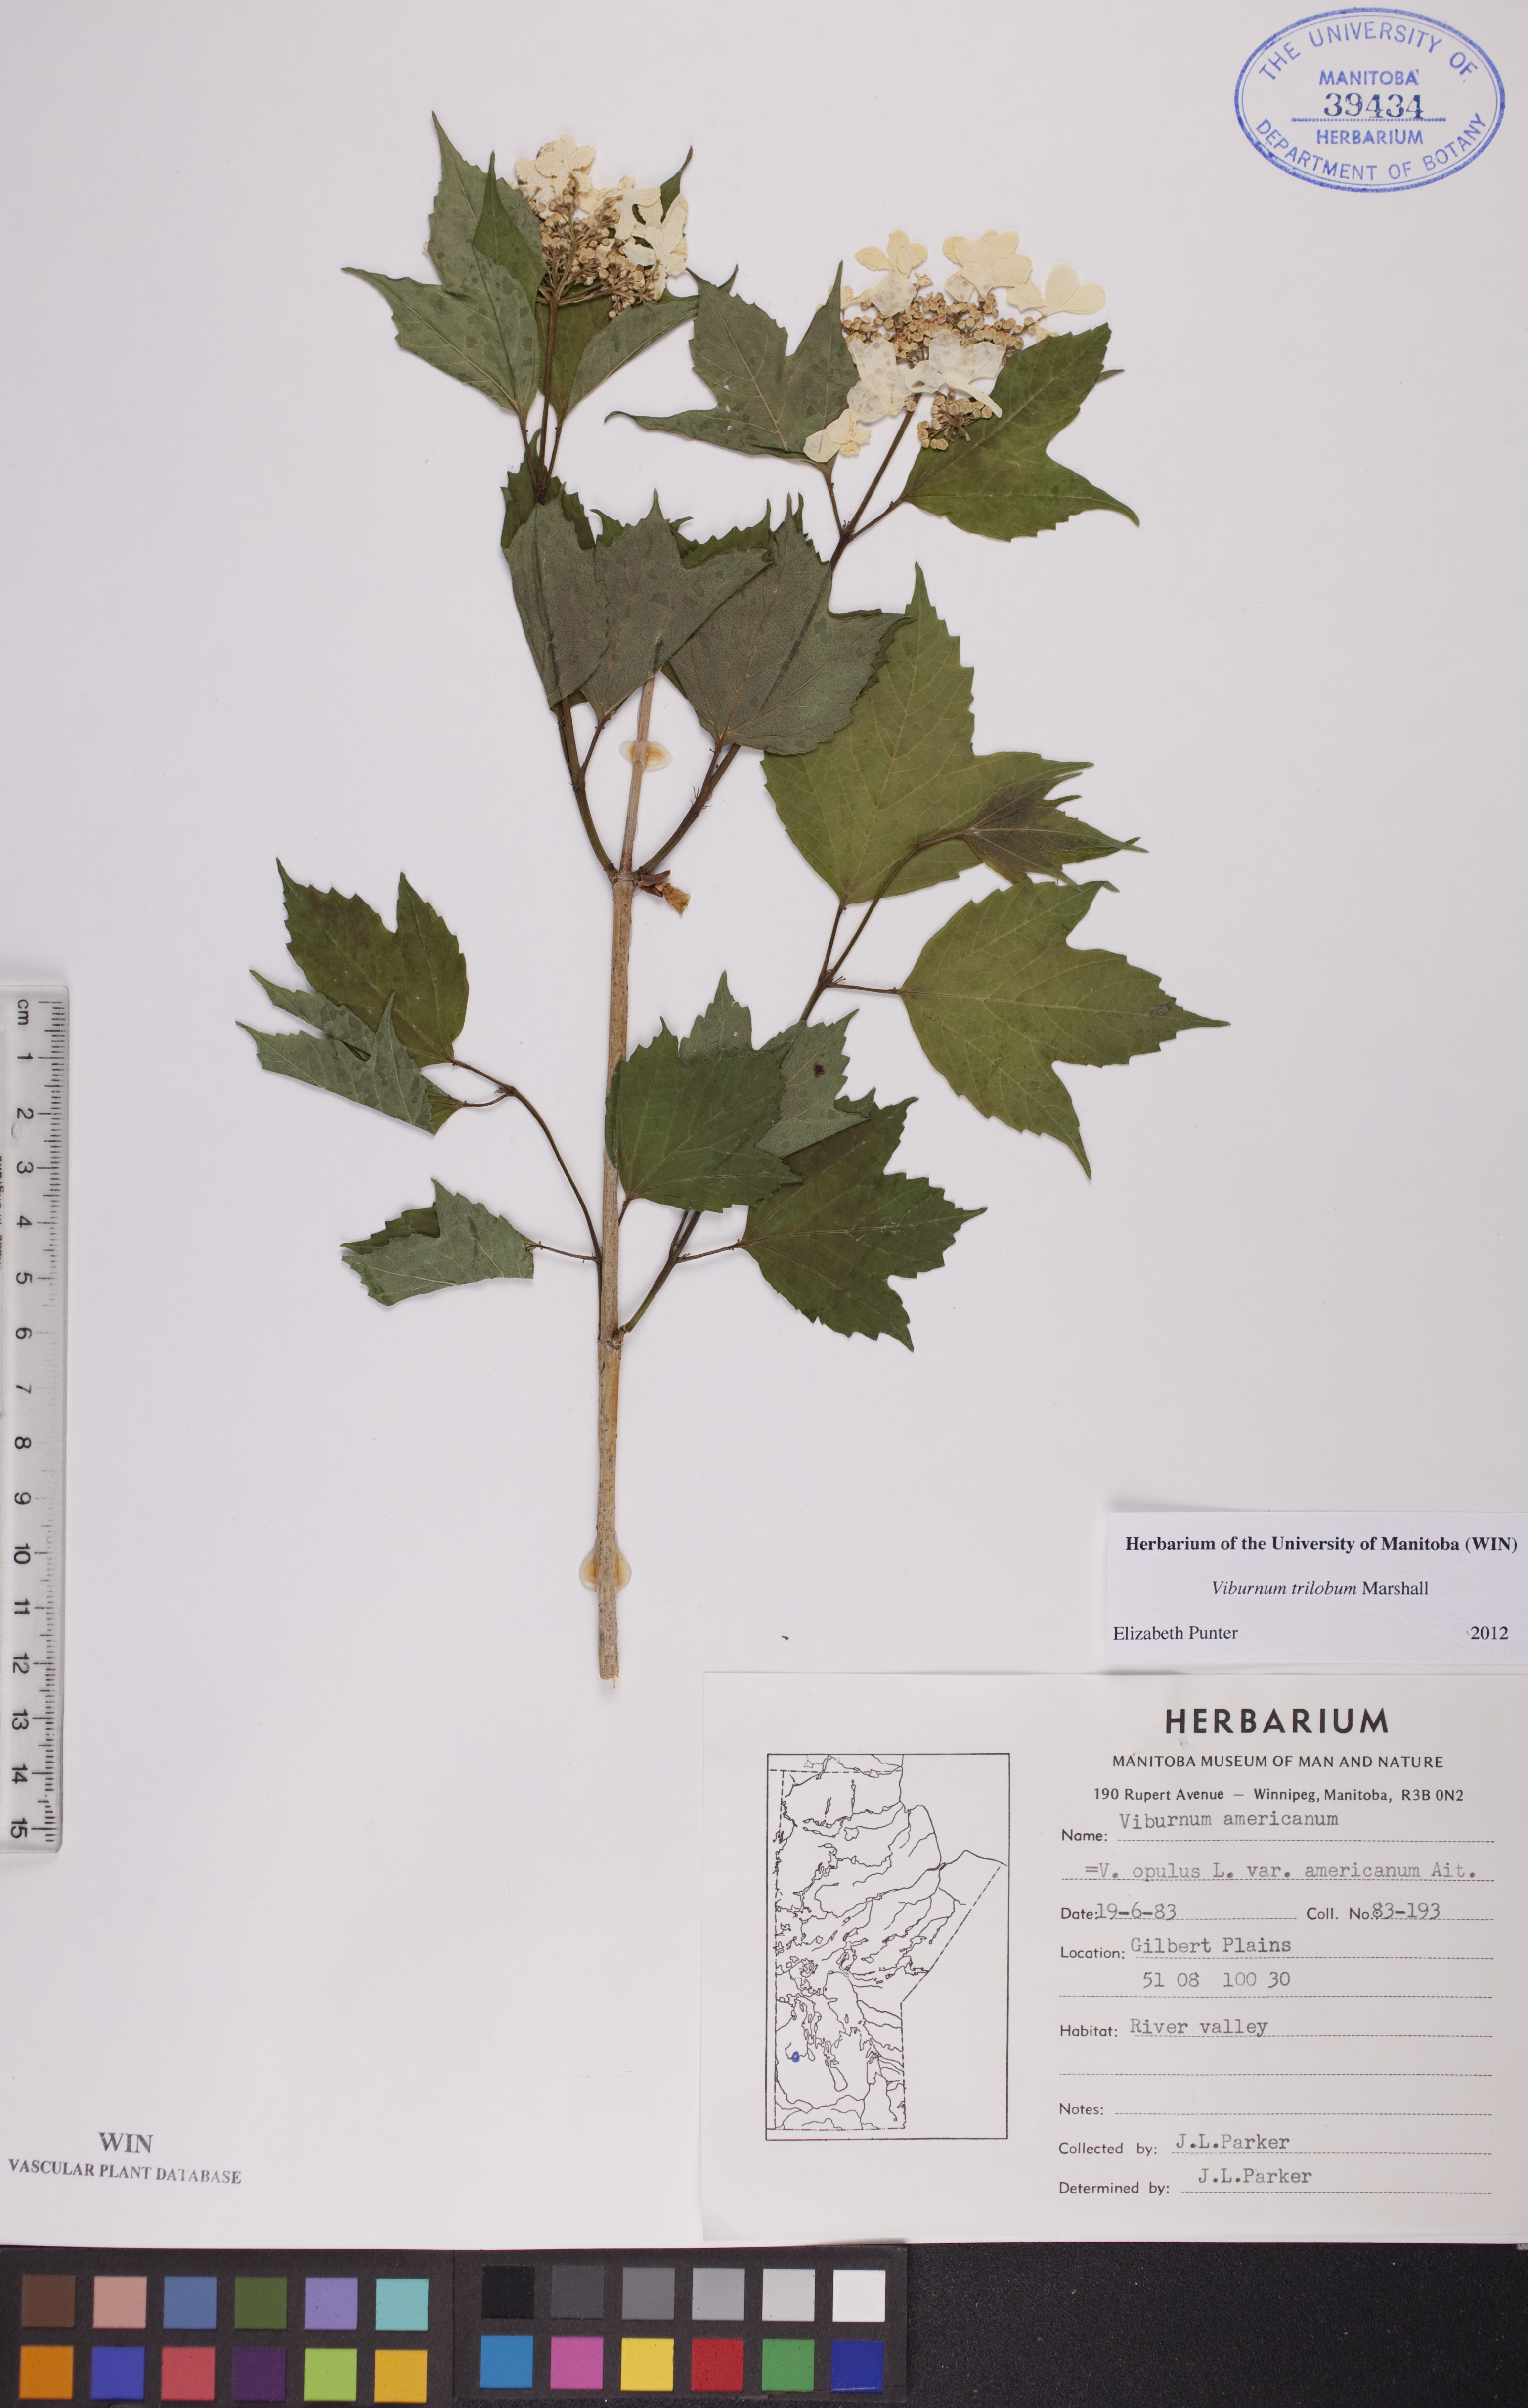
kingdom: Plantae
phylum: Tracheophyta
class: Magnoliopsida
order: Dipsacales
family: Viburnaceae
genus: Viburnum
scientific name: Viburnum trilobum
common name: American cranberrybush
